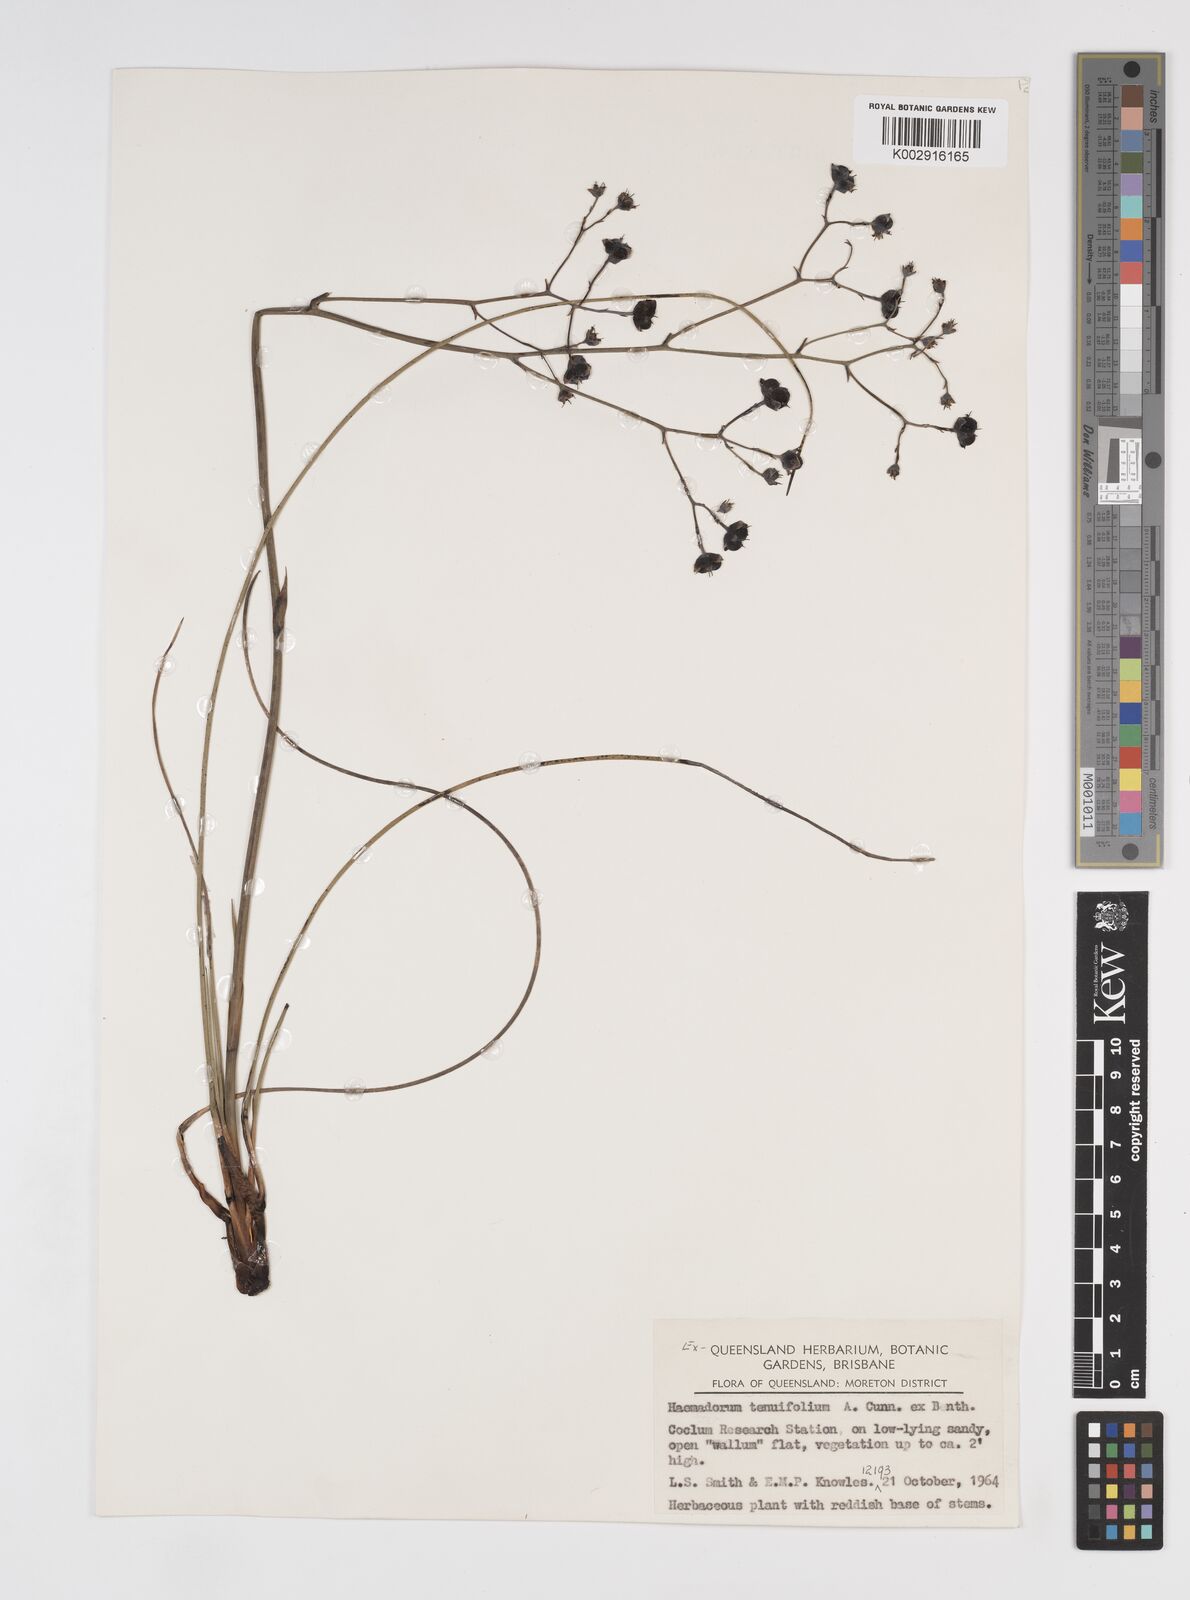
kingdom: Plantae
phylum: Tracheophyta
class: Liliopsida
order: Commelinales
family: Haemodoraceae
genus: Haemodorum
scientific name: Haemodorum tenuifolium
